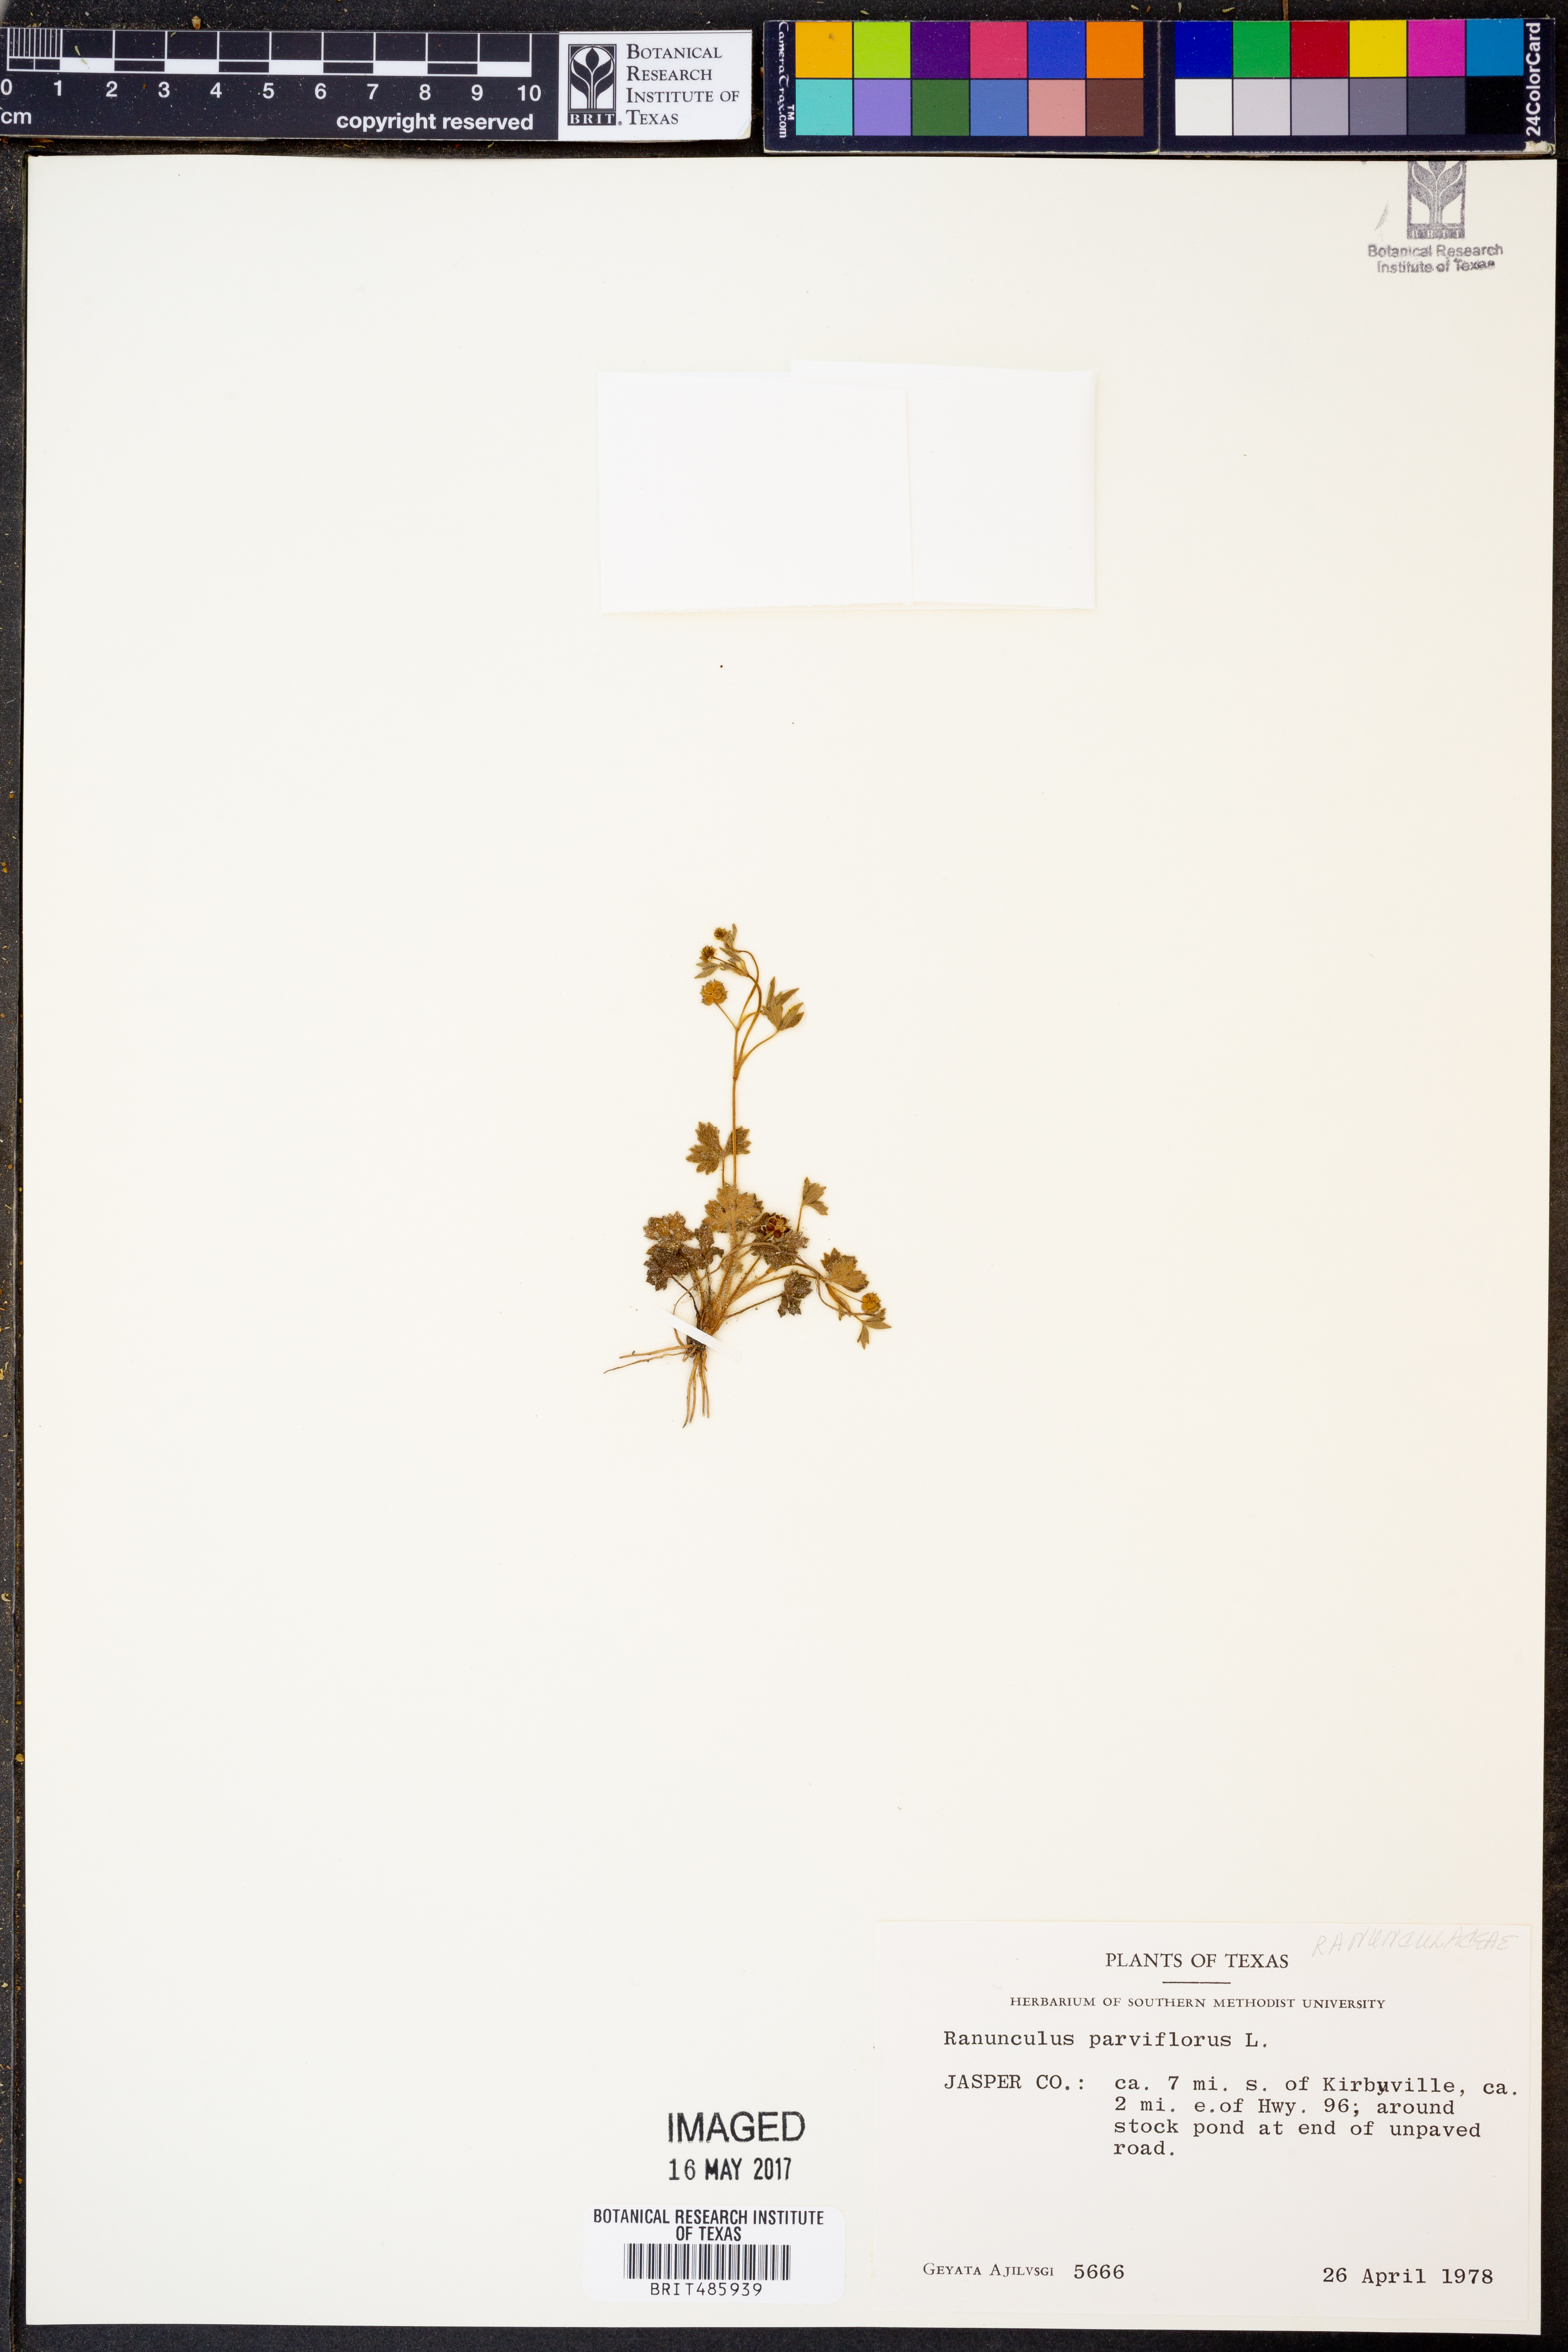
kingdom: Plantae
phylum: Tracheophyta
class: Magnoliopsida
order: Ranunculales
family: Ranunculaceae
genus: Ranunculus
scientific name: Ranunculus parviflorus
